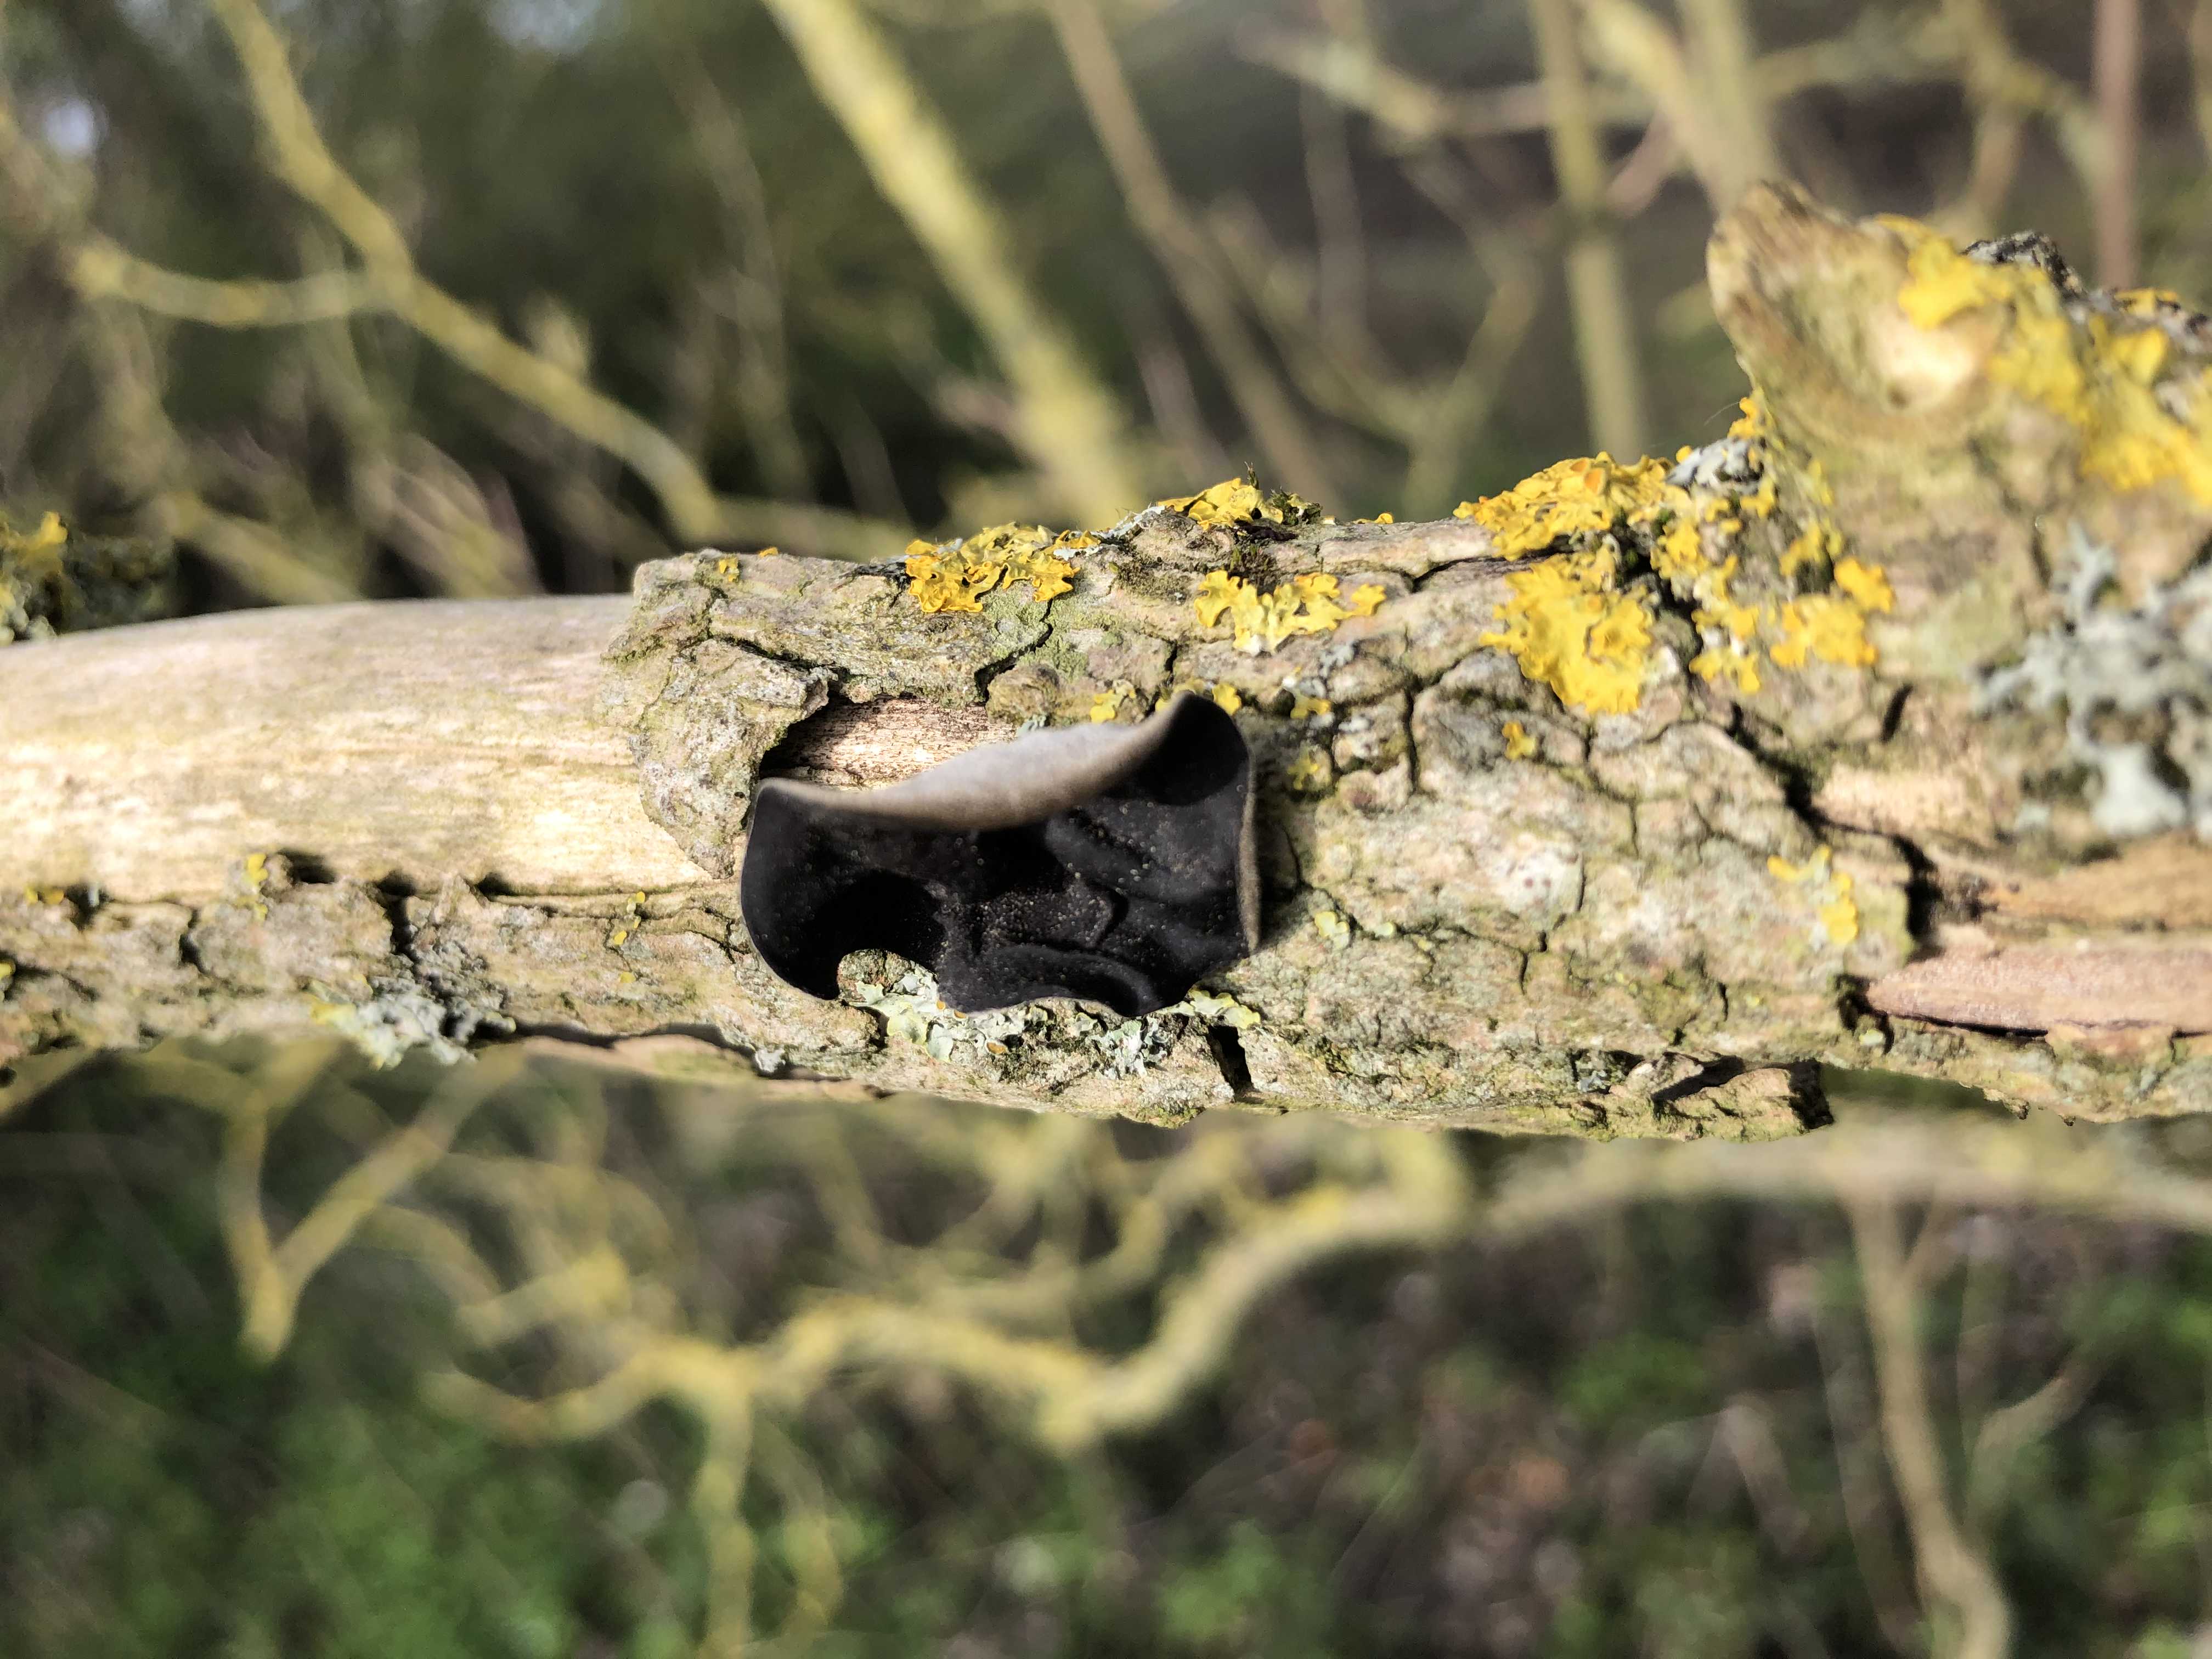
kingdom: Fungi
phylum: Basidiomycota
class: Agaricomycetes
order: Auriculariales
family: Auriculariaceae
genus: Auricularia
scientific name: Auricularia auricula-judae
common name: almindelig judasøre
